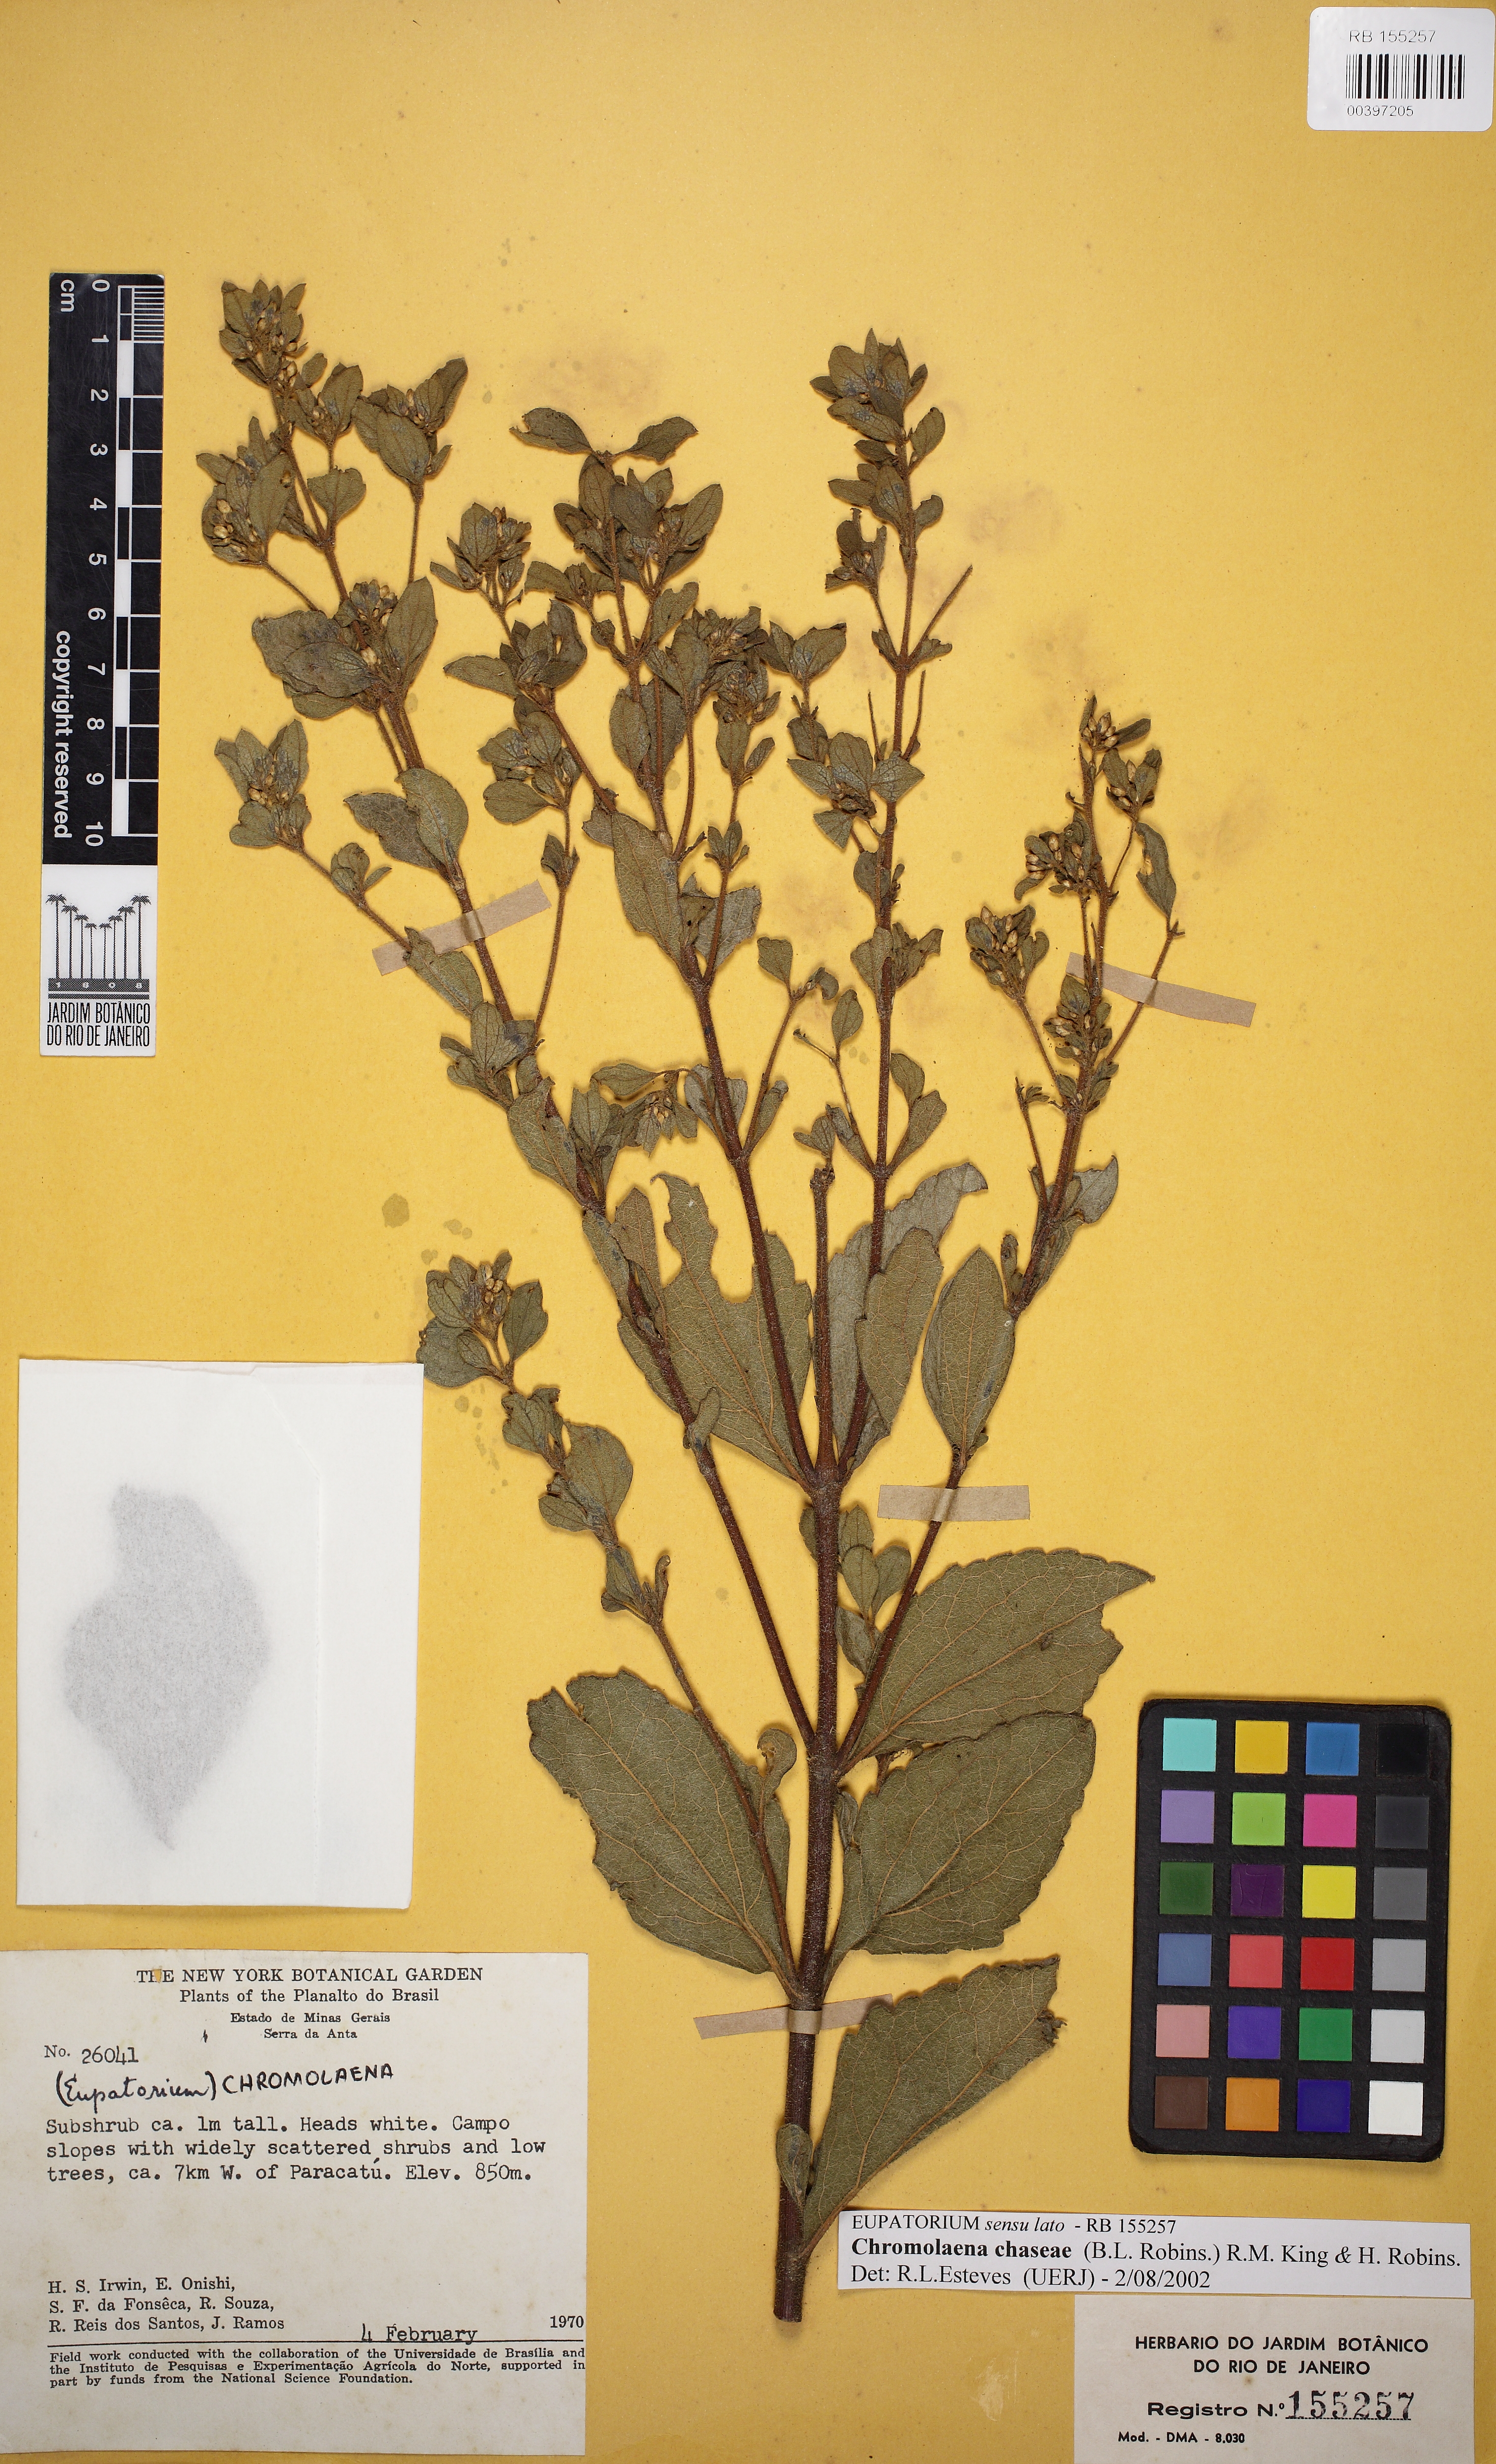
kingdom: Plantae
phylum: Tracheophyta
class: Magnoliopsida
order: Asterales
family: Asteraceae
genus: Chromolaena
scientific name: Chromolaena chaseae
